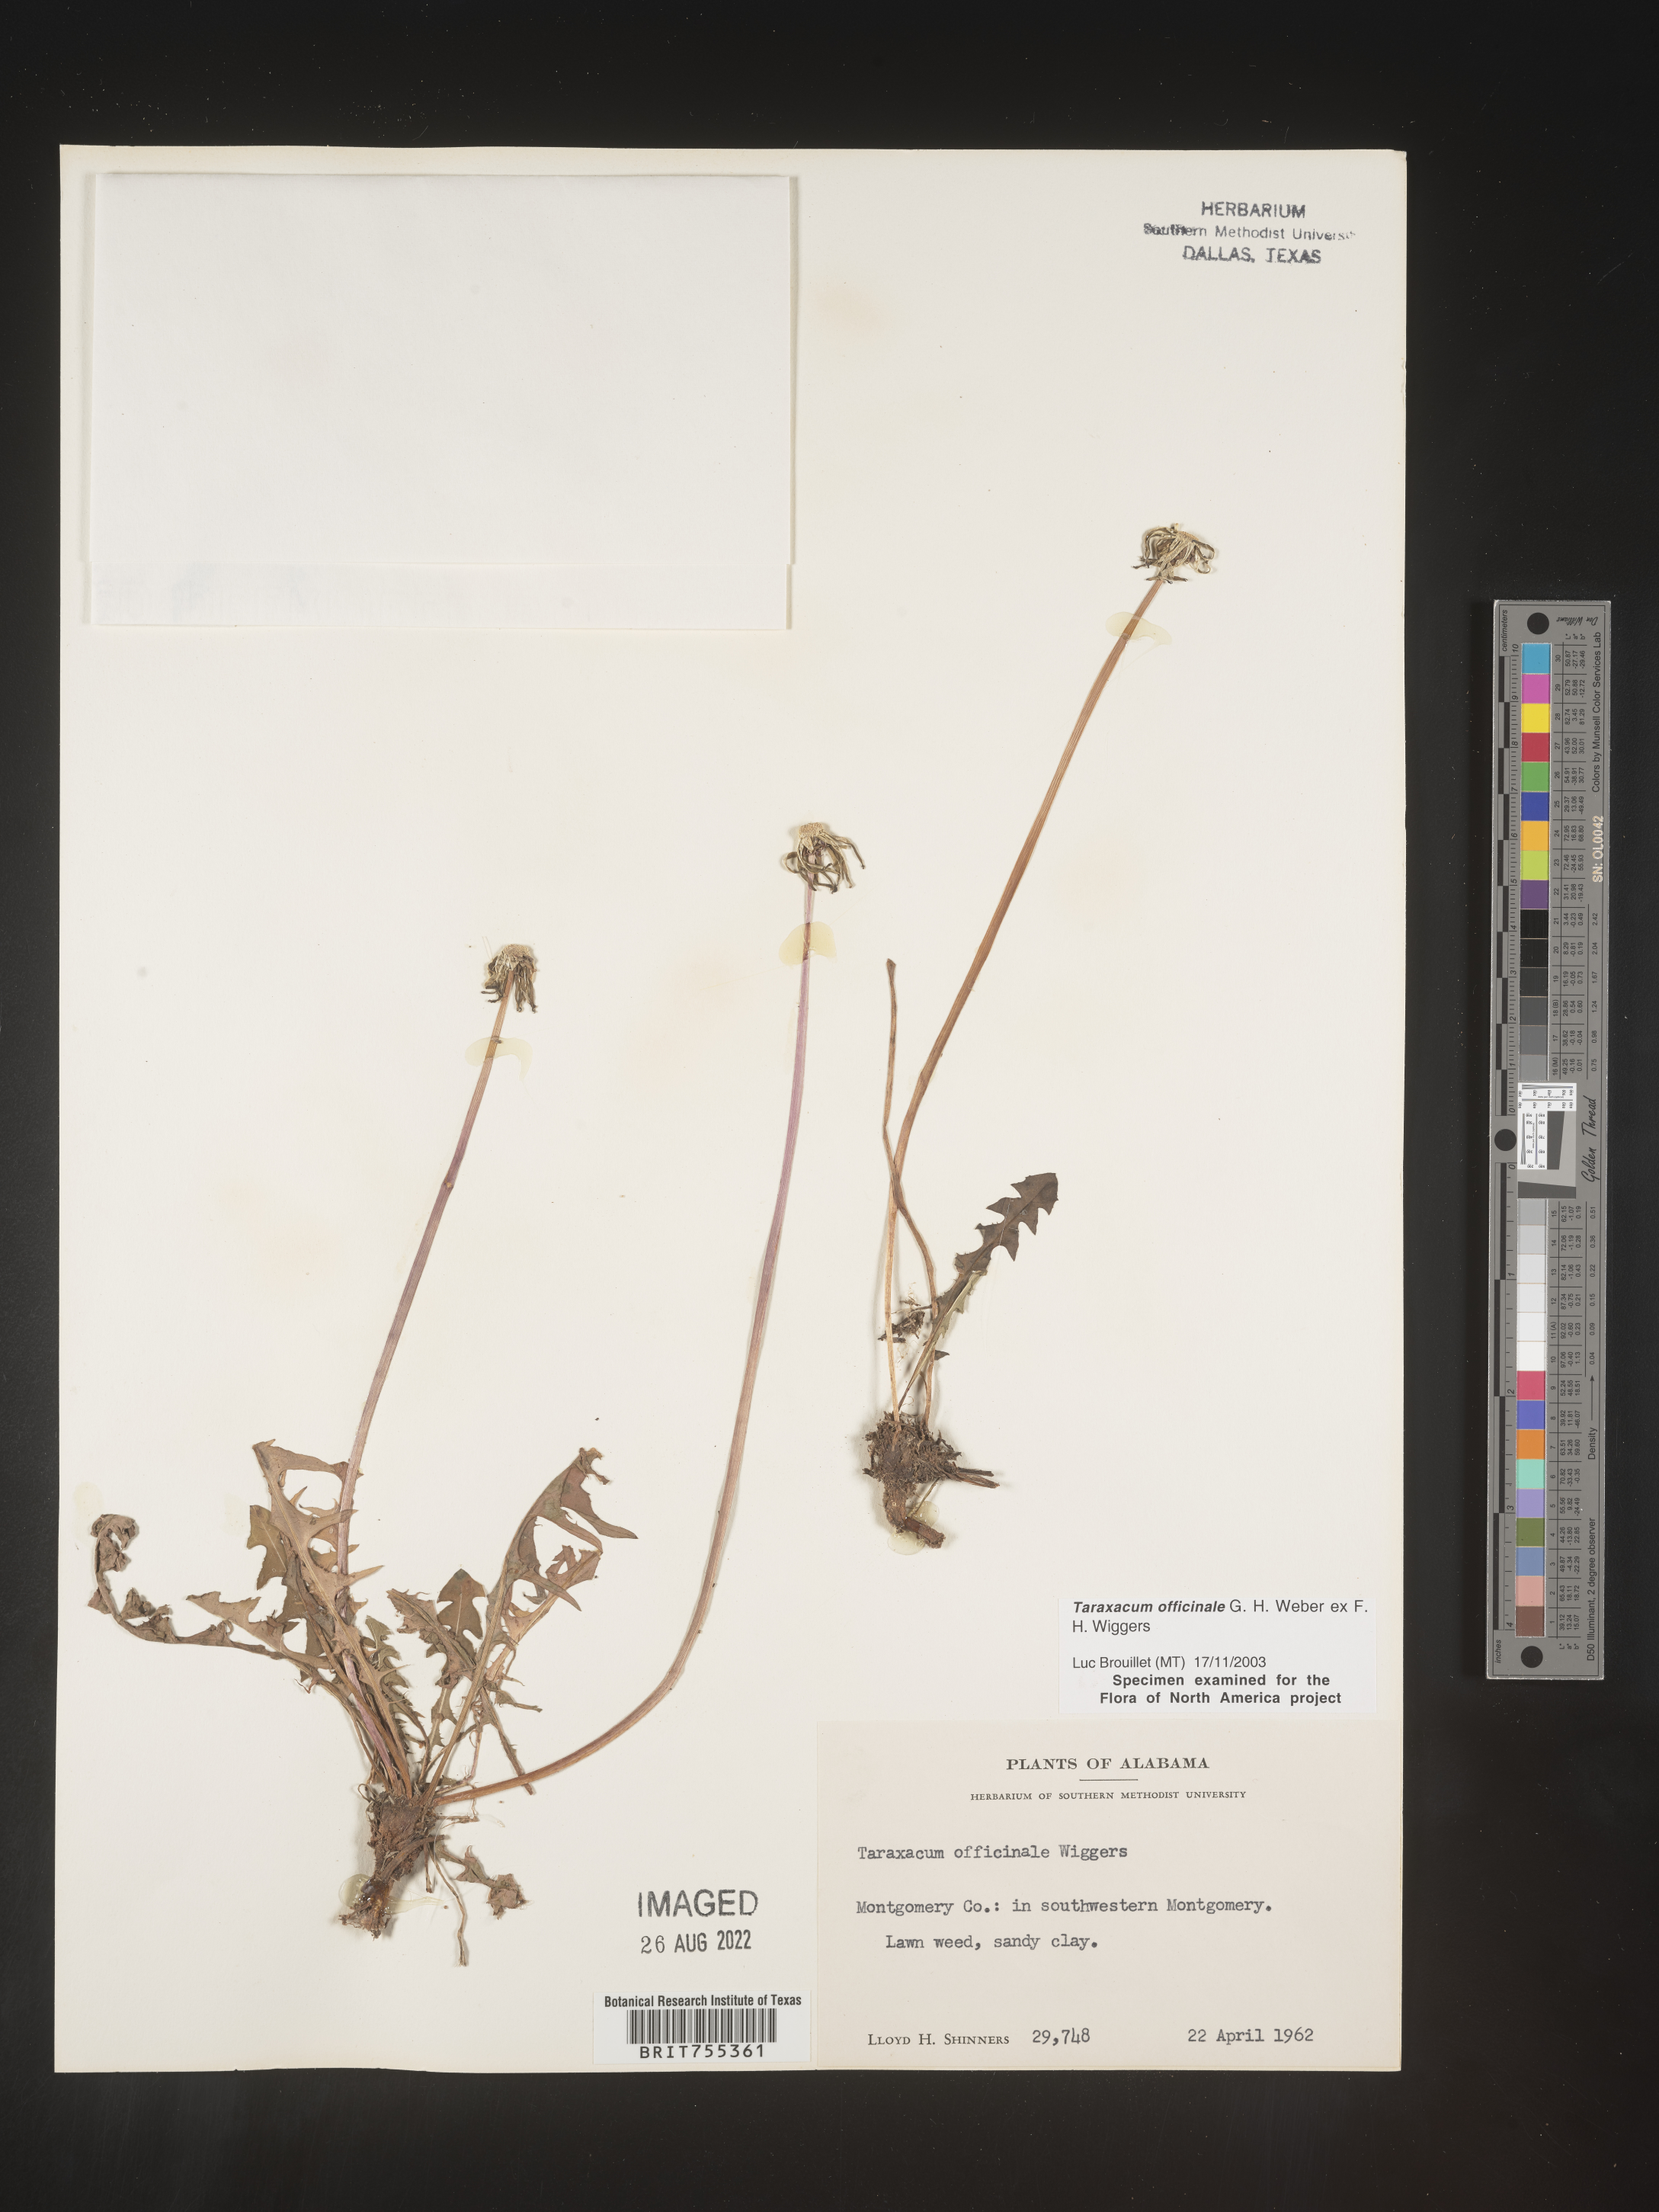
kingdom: Plantae
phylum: Tracheophyta
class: Magnoliopsida
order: Asterales
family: Asteraceae
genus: Taraxacum
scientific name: Taraxacum officinale
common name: Common dandelion
